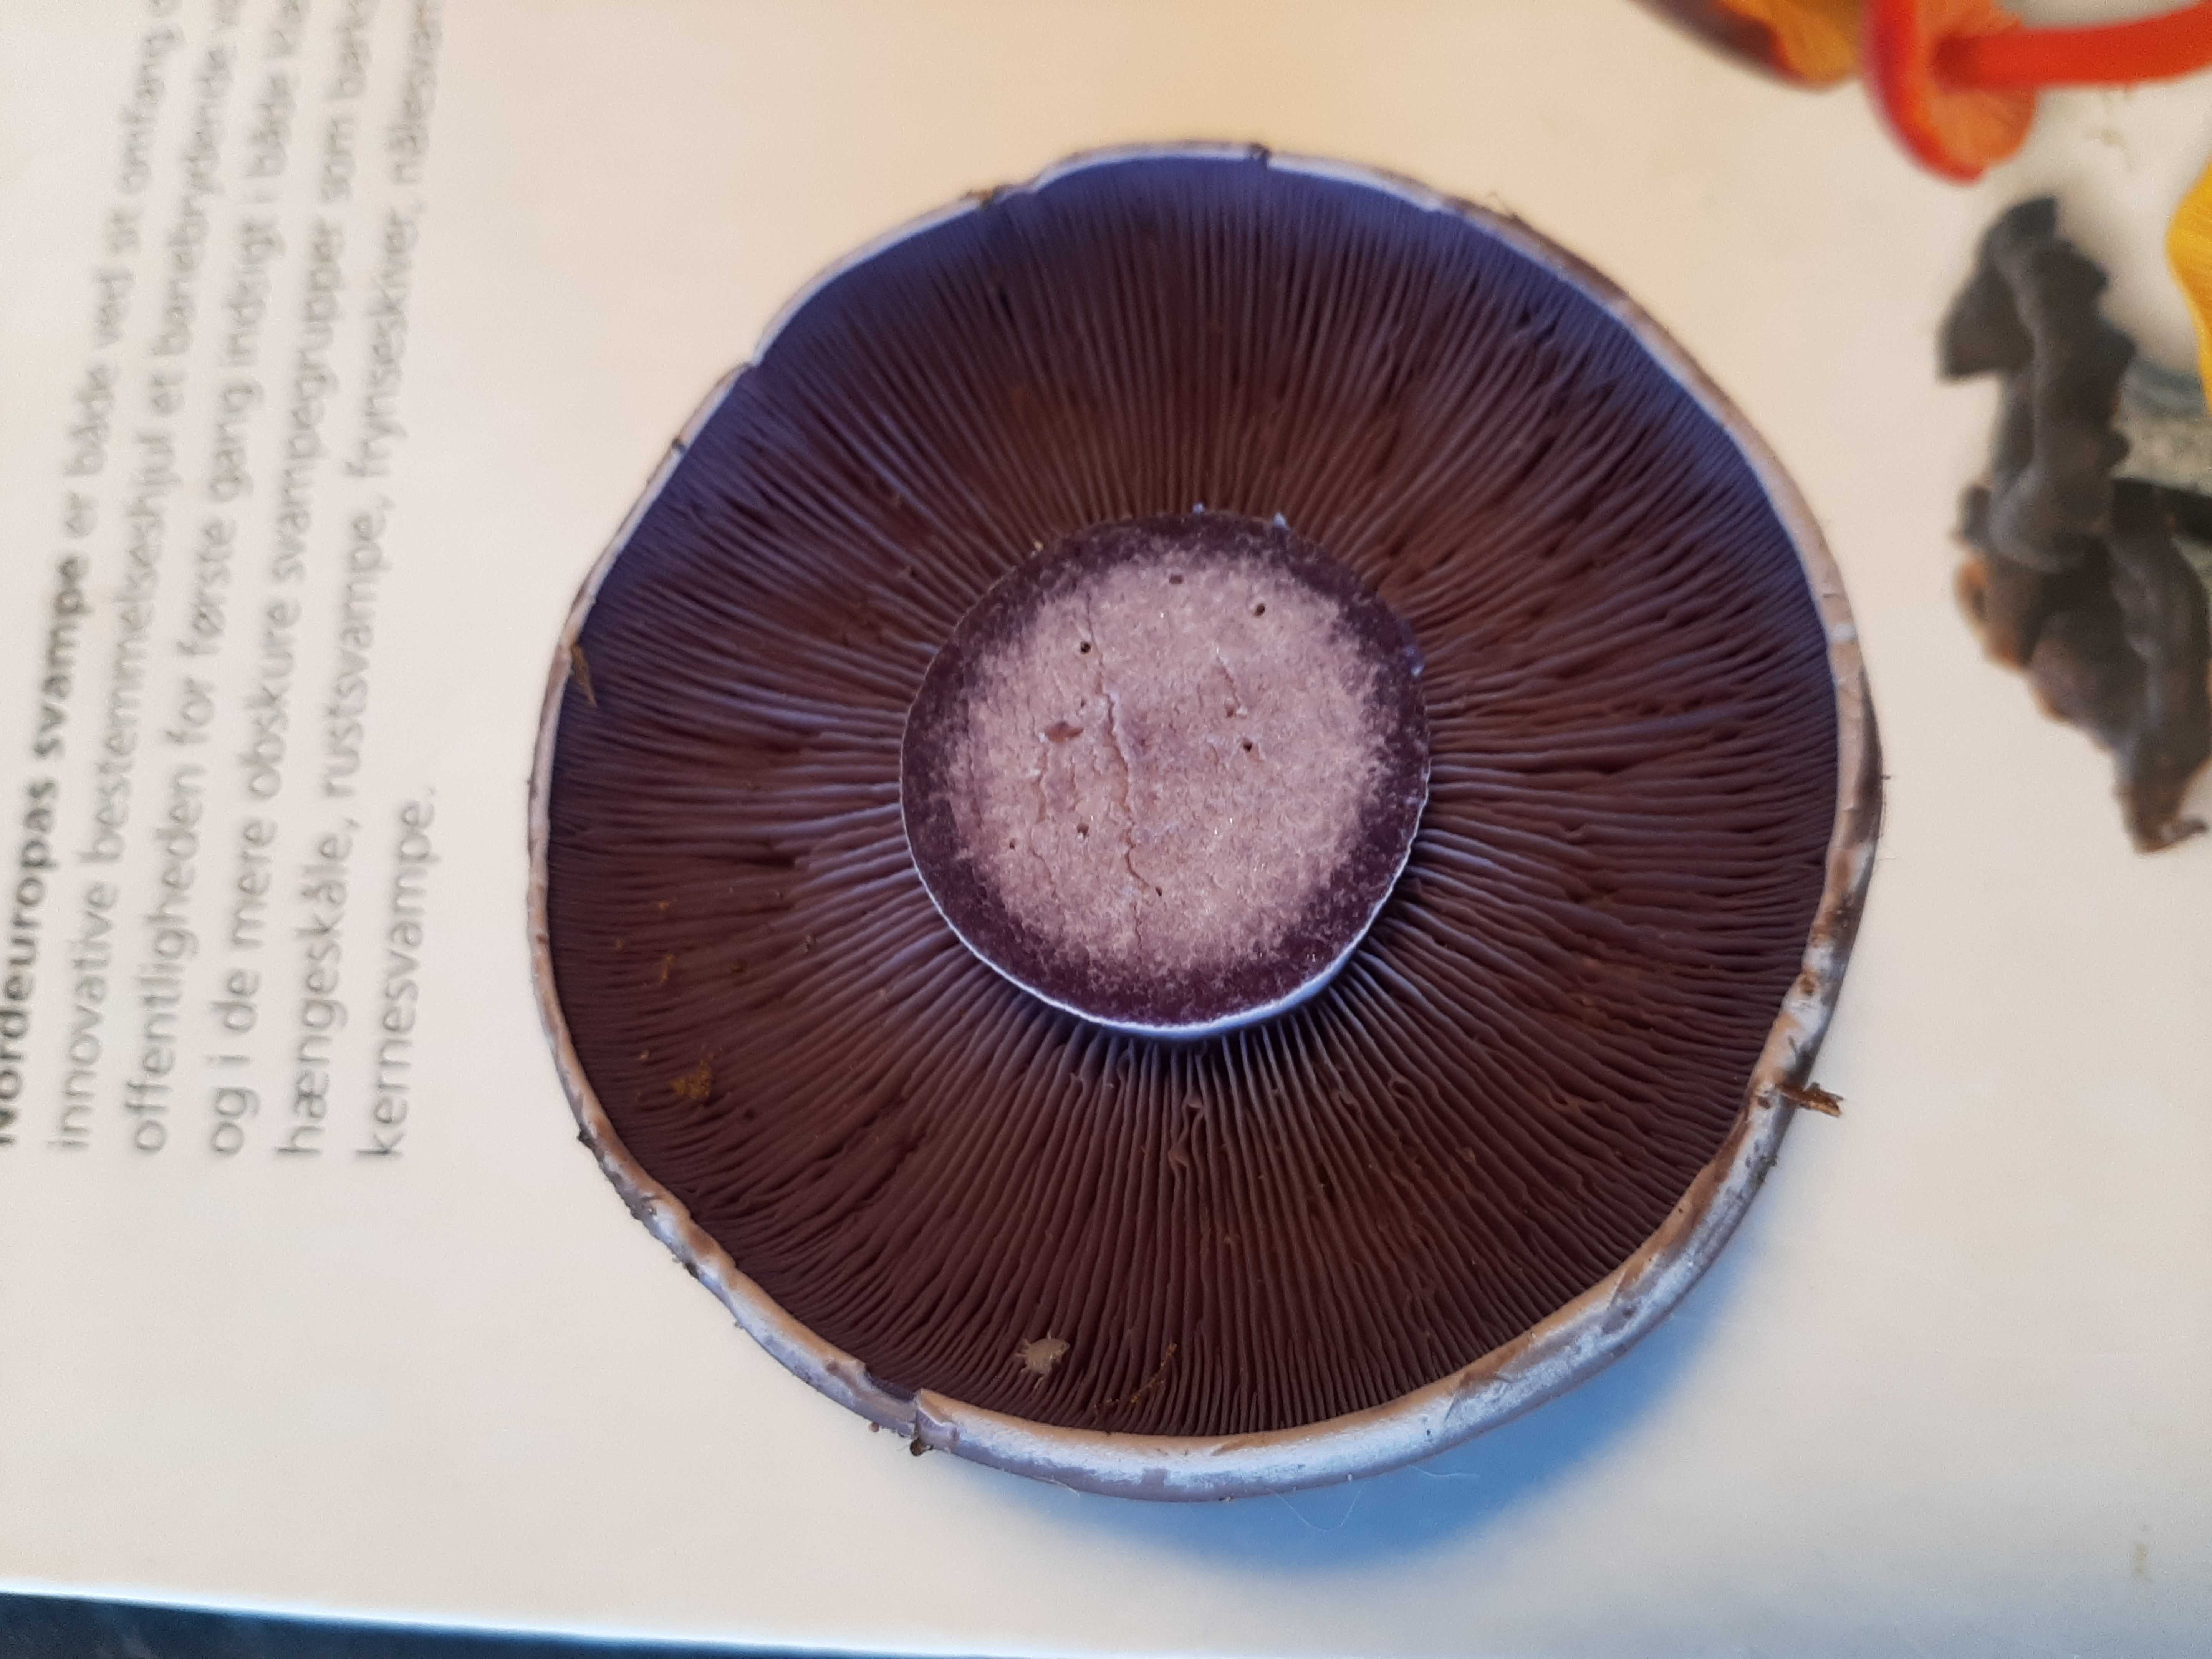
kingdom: Fungi
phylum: Basidiomycota
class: Agaricomycetes
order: Agaricales
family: Tricholomataceae
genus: Lepista
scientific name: Lepista nuda
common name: violet hekseringshat
